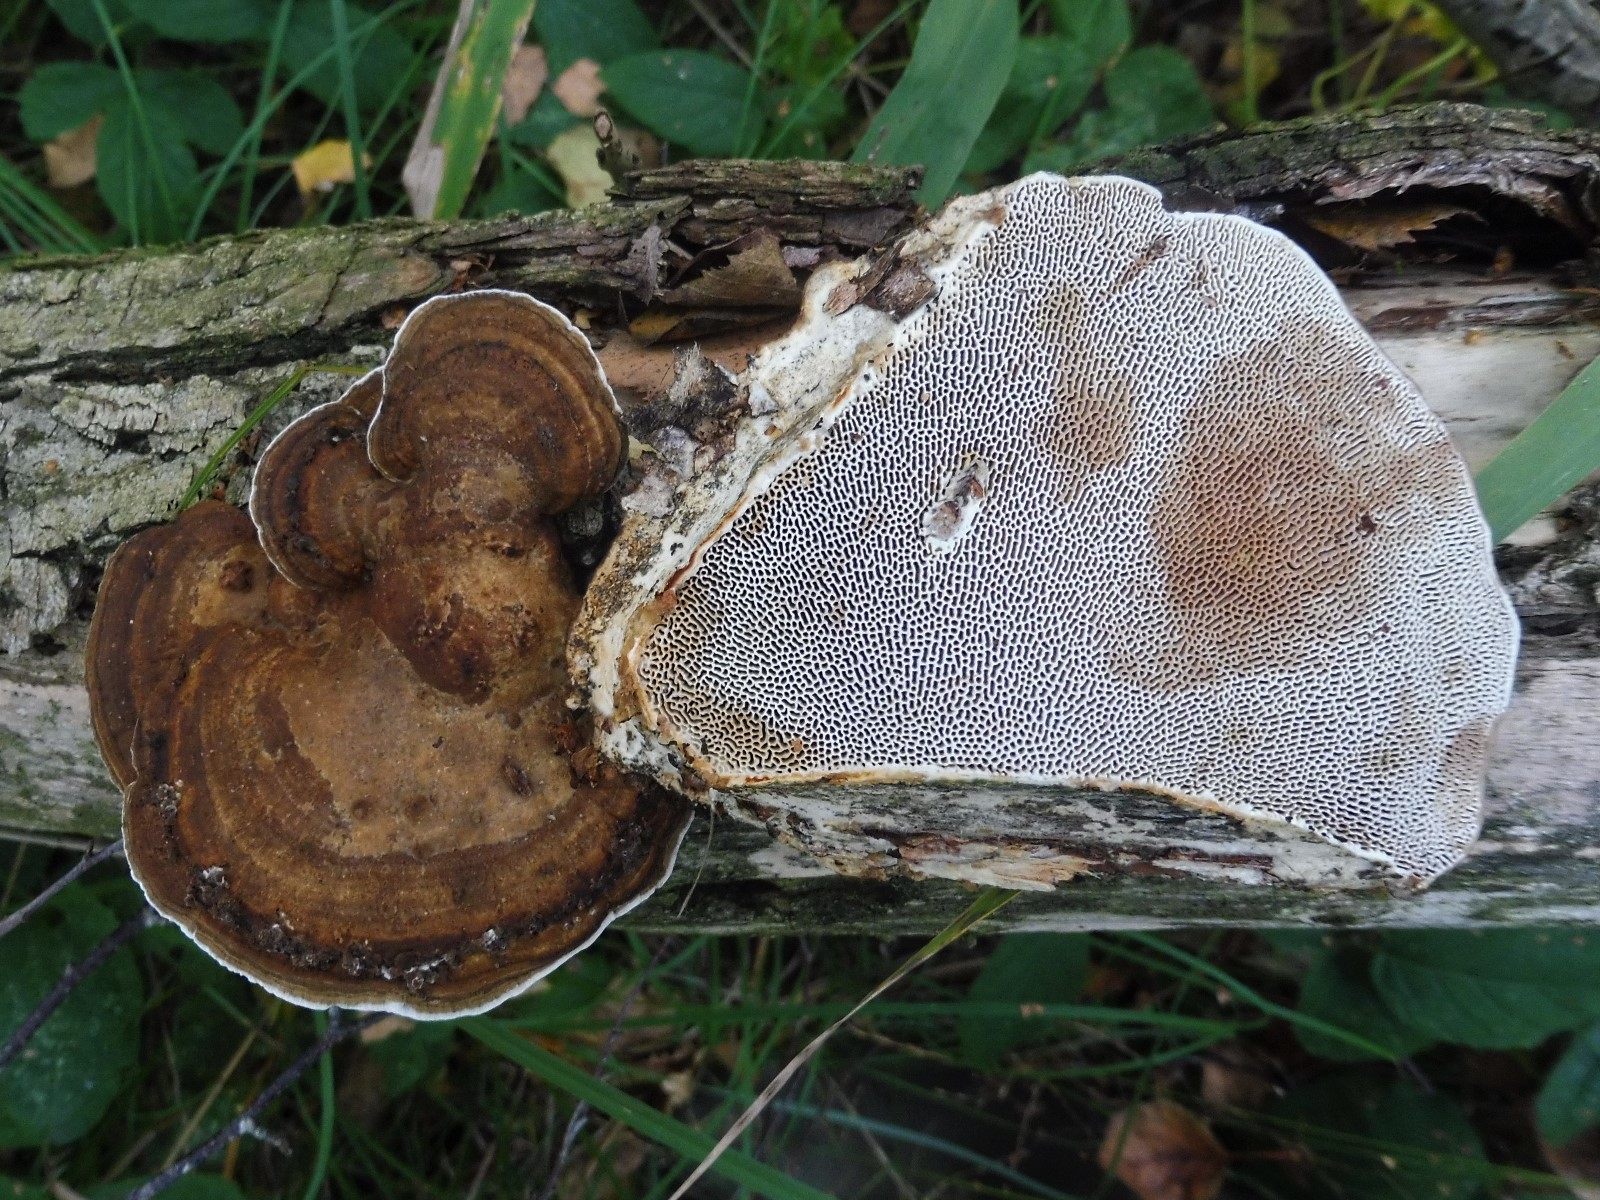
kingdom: Fungi
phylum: Basidiomycota
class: Agaricomycetes
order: Polyporales
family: Polyporaceae
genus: Daedaleopsis
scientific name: Daedaleopsis confragosa
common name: rødmende læderporesvamp
